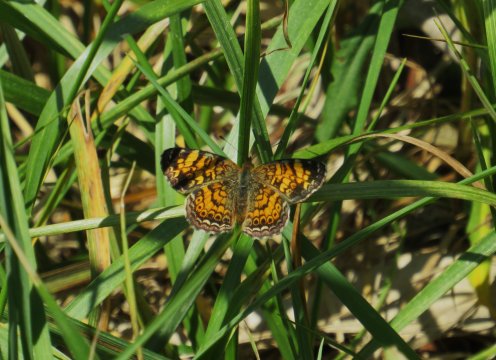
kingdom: Animalia
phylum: Arthropoda
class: Insecta
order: Lepidoptera
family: Nymphalidae
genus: Phyciodes
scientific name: Phyciodes tharos
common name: Pearl Crescent
